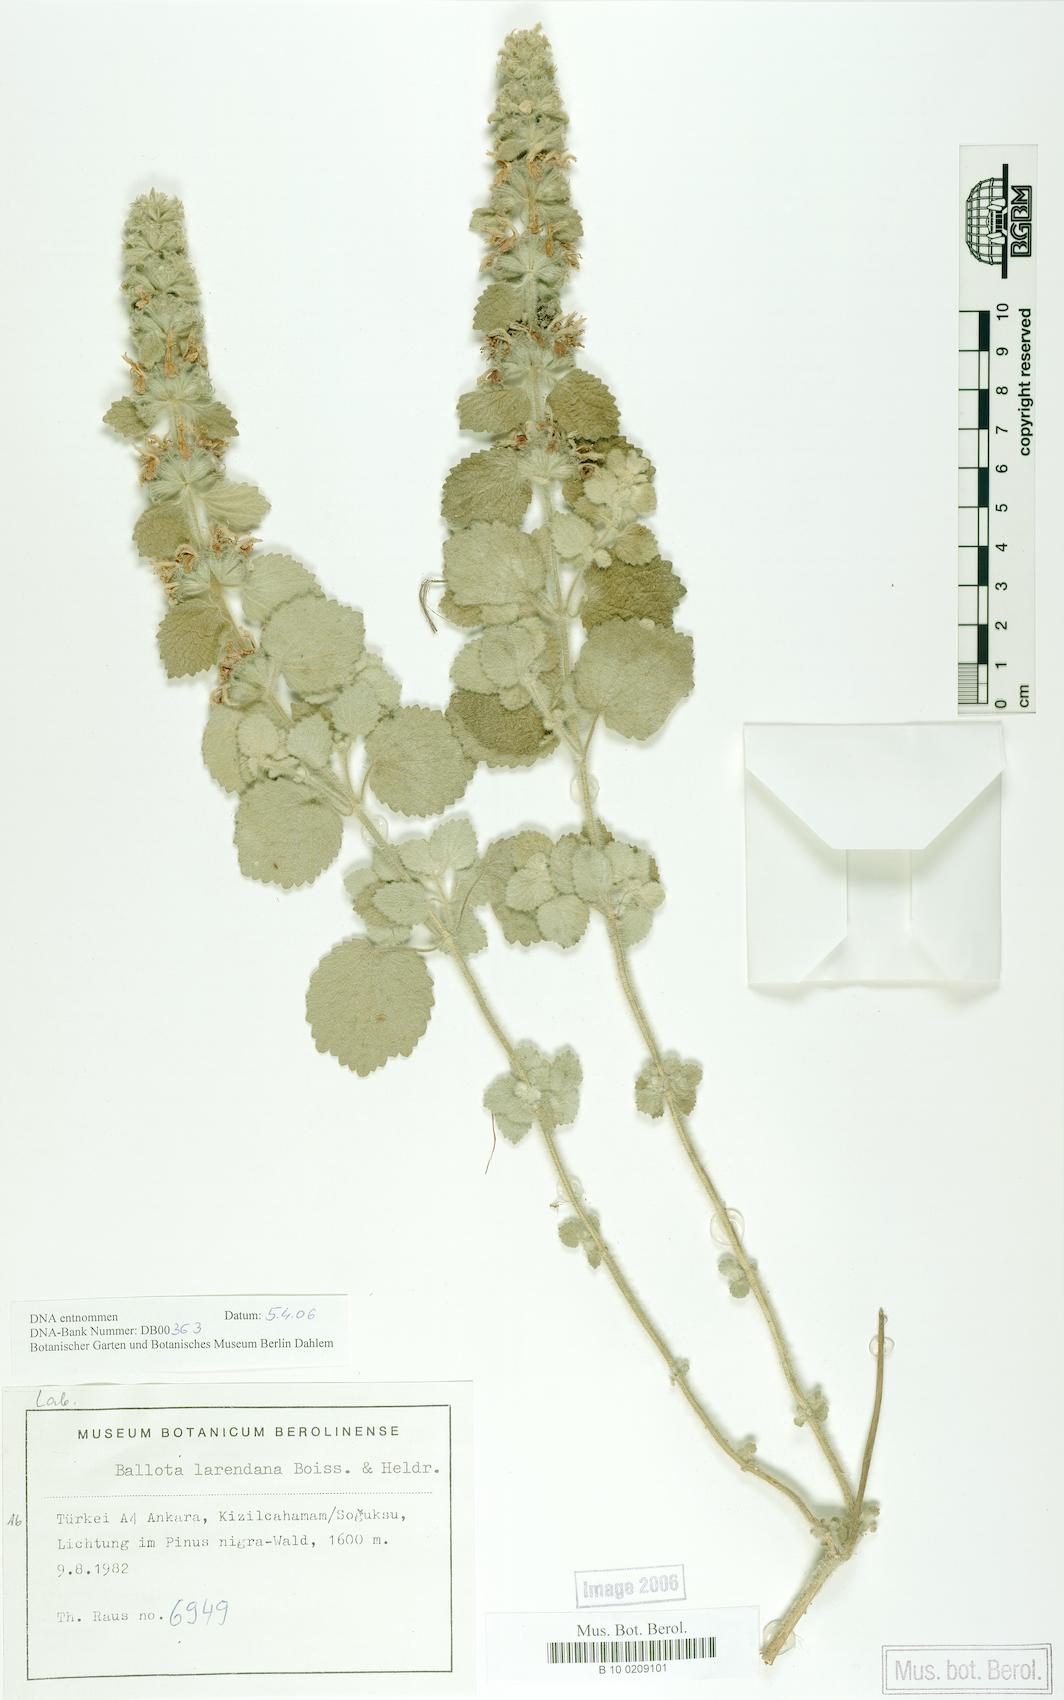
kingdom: Plantae
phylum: Tracheophyta
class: Magnoliopsida
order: Lamiales
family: Lamiaceae
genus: Ballota
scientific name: Ballota larendana
